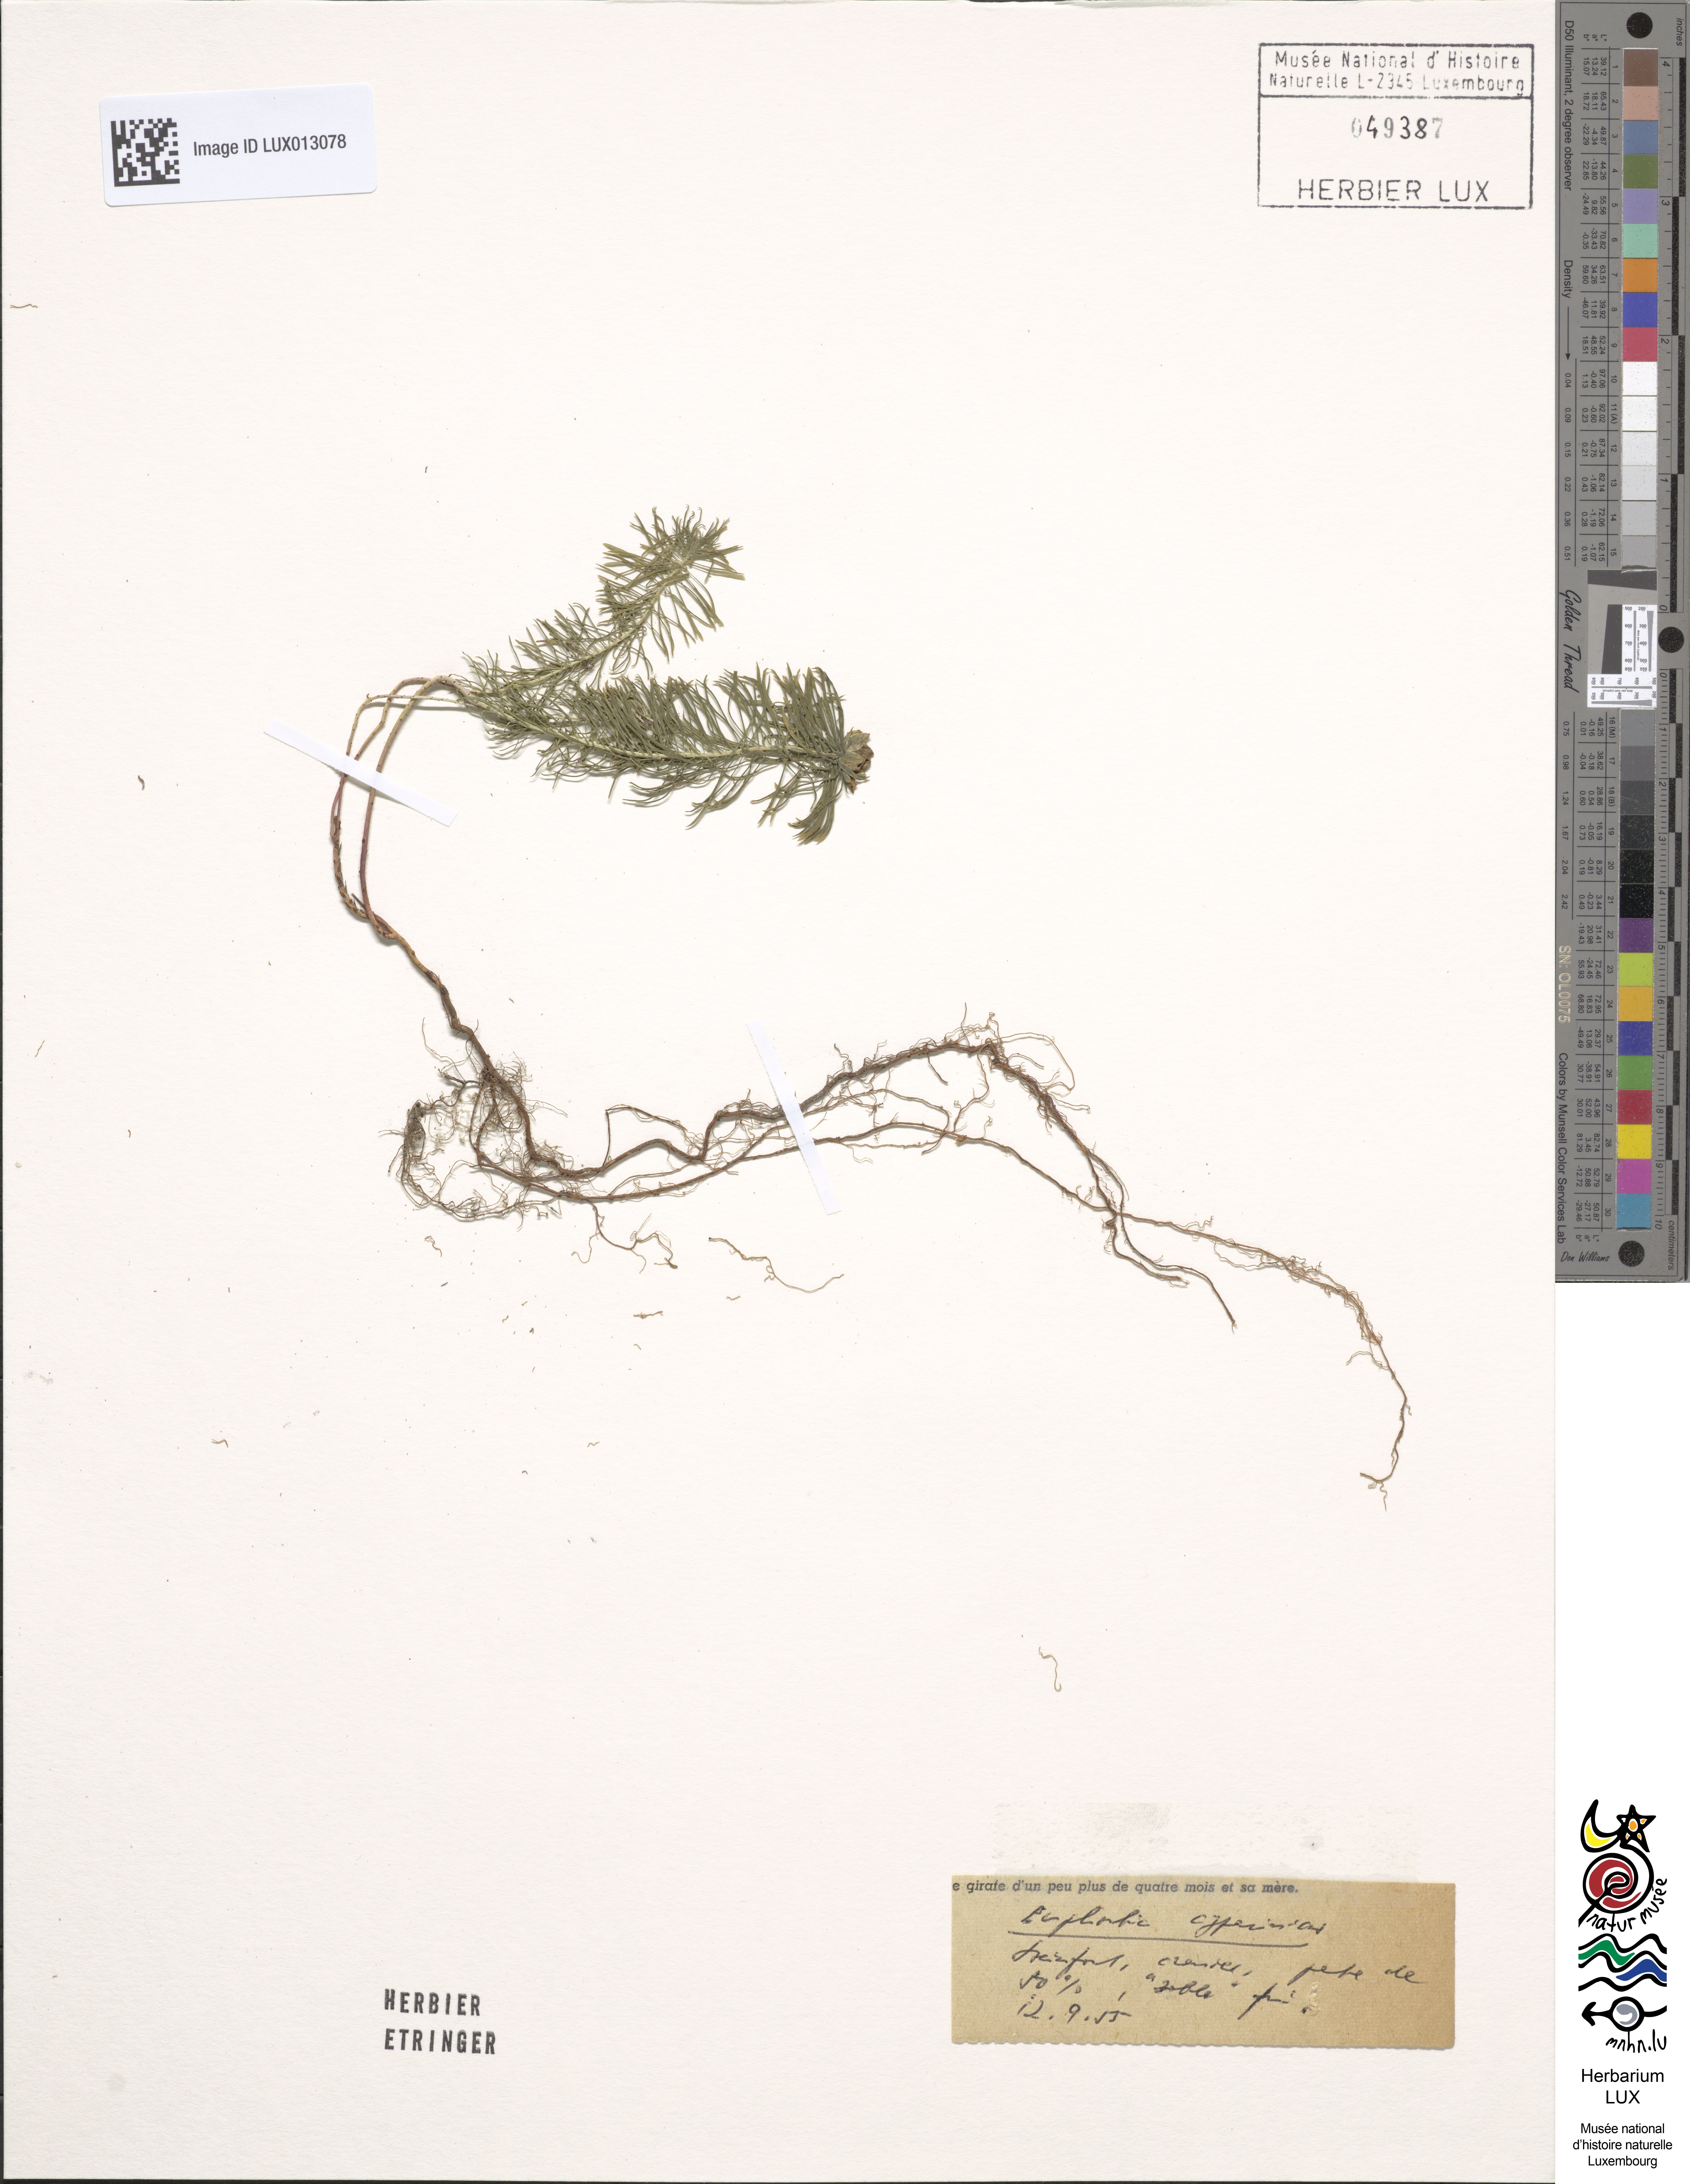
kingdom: Plantae
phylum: Tracheophyta
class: Magnoliopsida
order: Malpighiales
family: Euphorbiaceae
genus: Euphorbia
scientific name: Euphorbia cyparissias
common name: Cypress spurge
